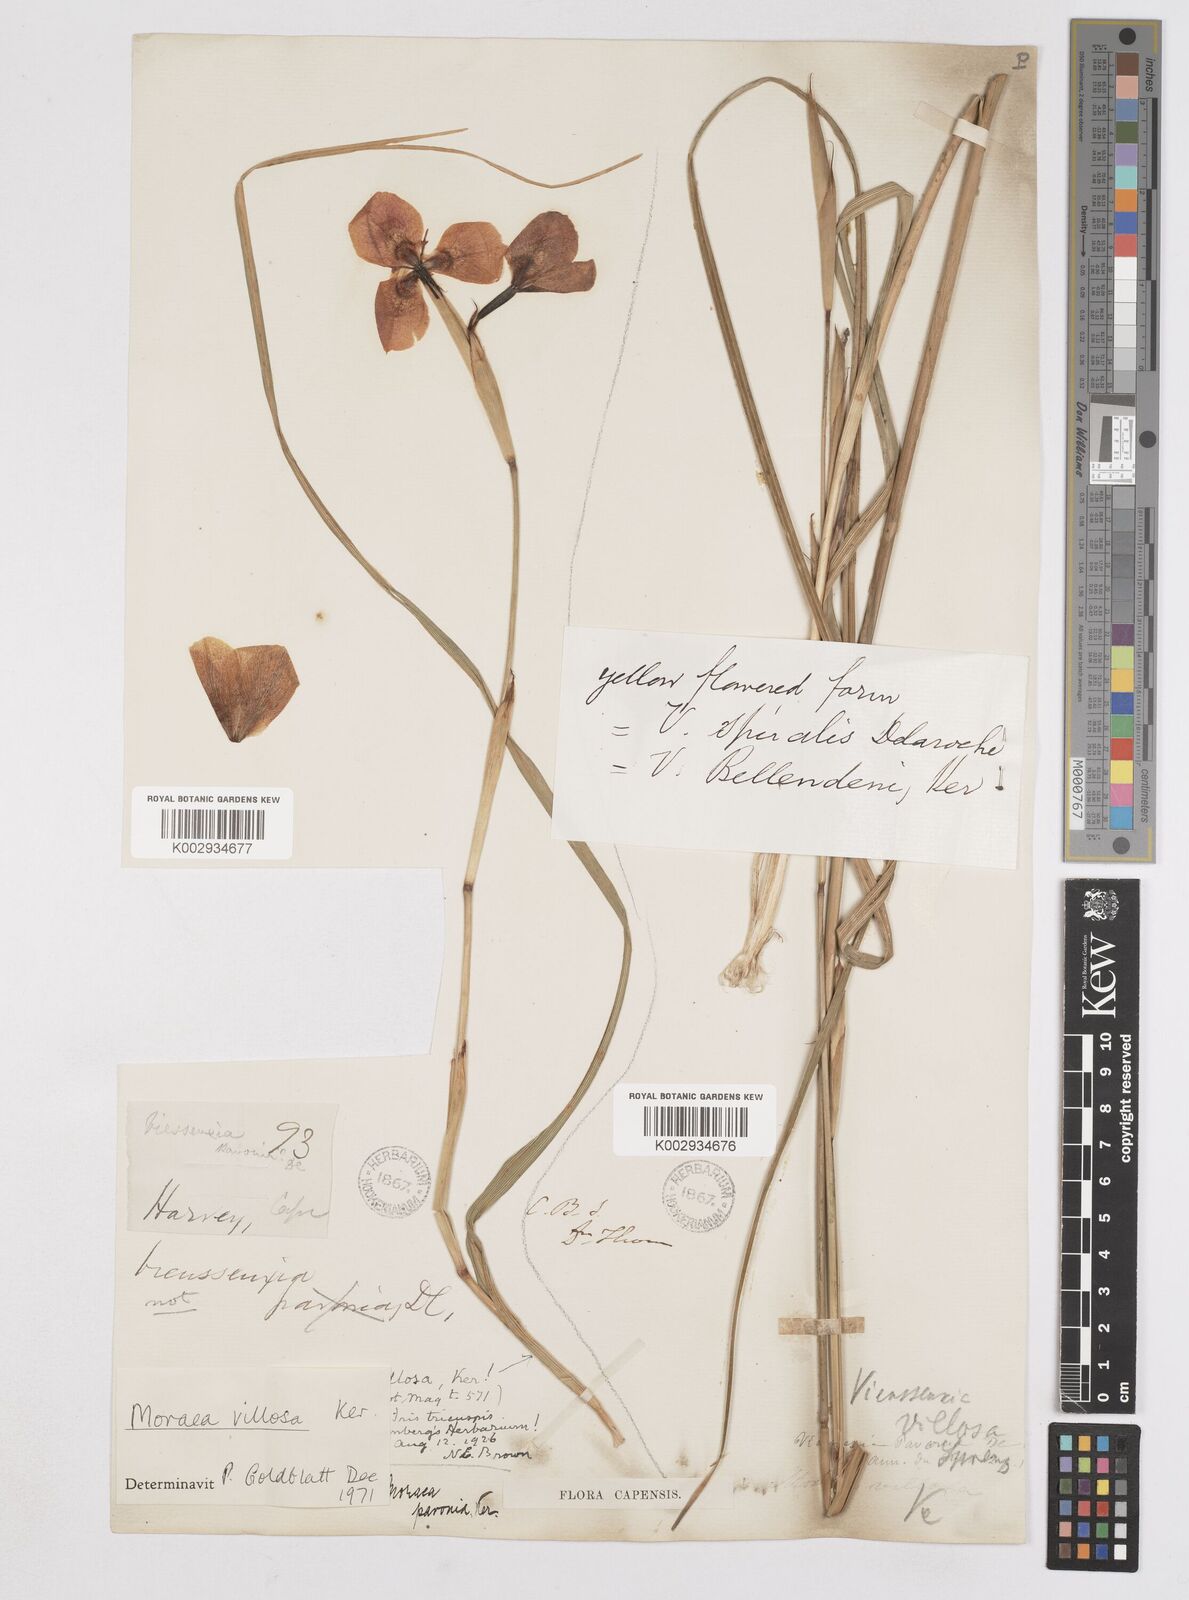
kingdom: Plantae
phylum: Tracheophyta
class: Liliopsida
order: Asparagales
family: Iridaceae
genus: Moraea
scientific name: Moraea villosa
